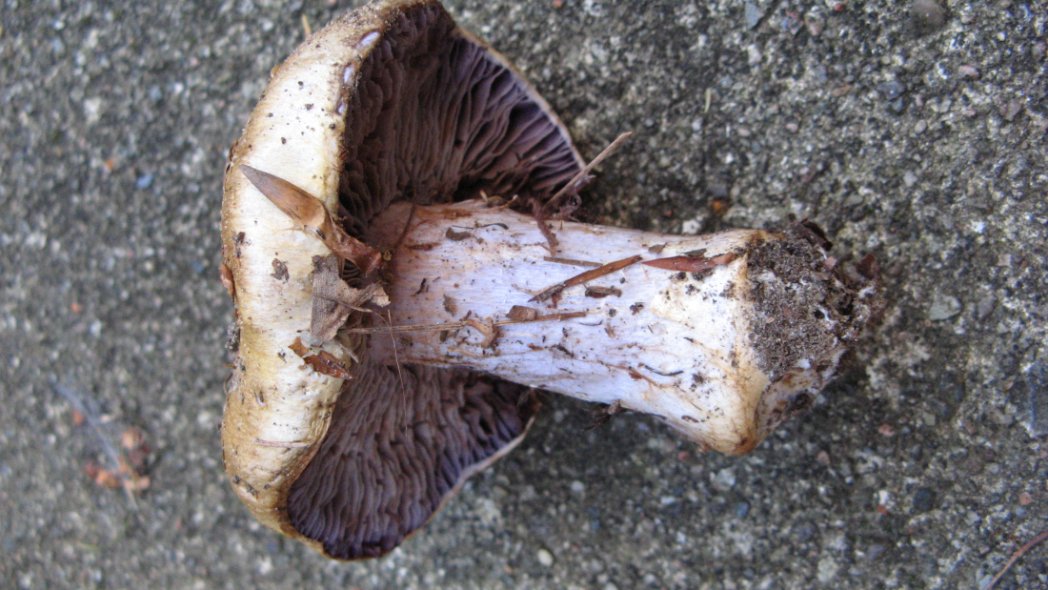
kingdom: Fungi
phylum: Basidiomycota
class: Agaricomycetes
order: Agaricales
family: Cortinariaceae
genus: Cortinarius
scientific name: Cortinarius anserinus
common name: bøge-slørhat
